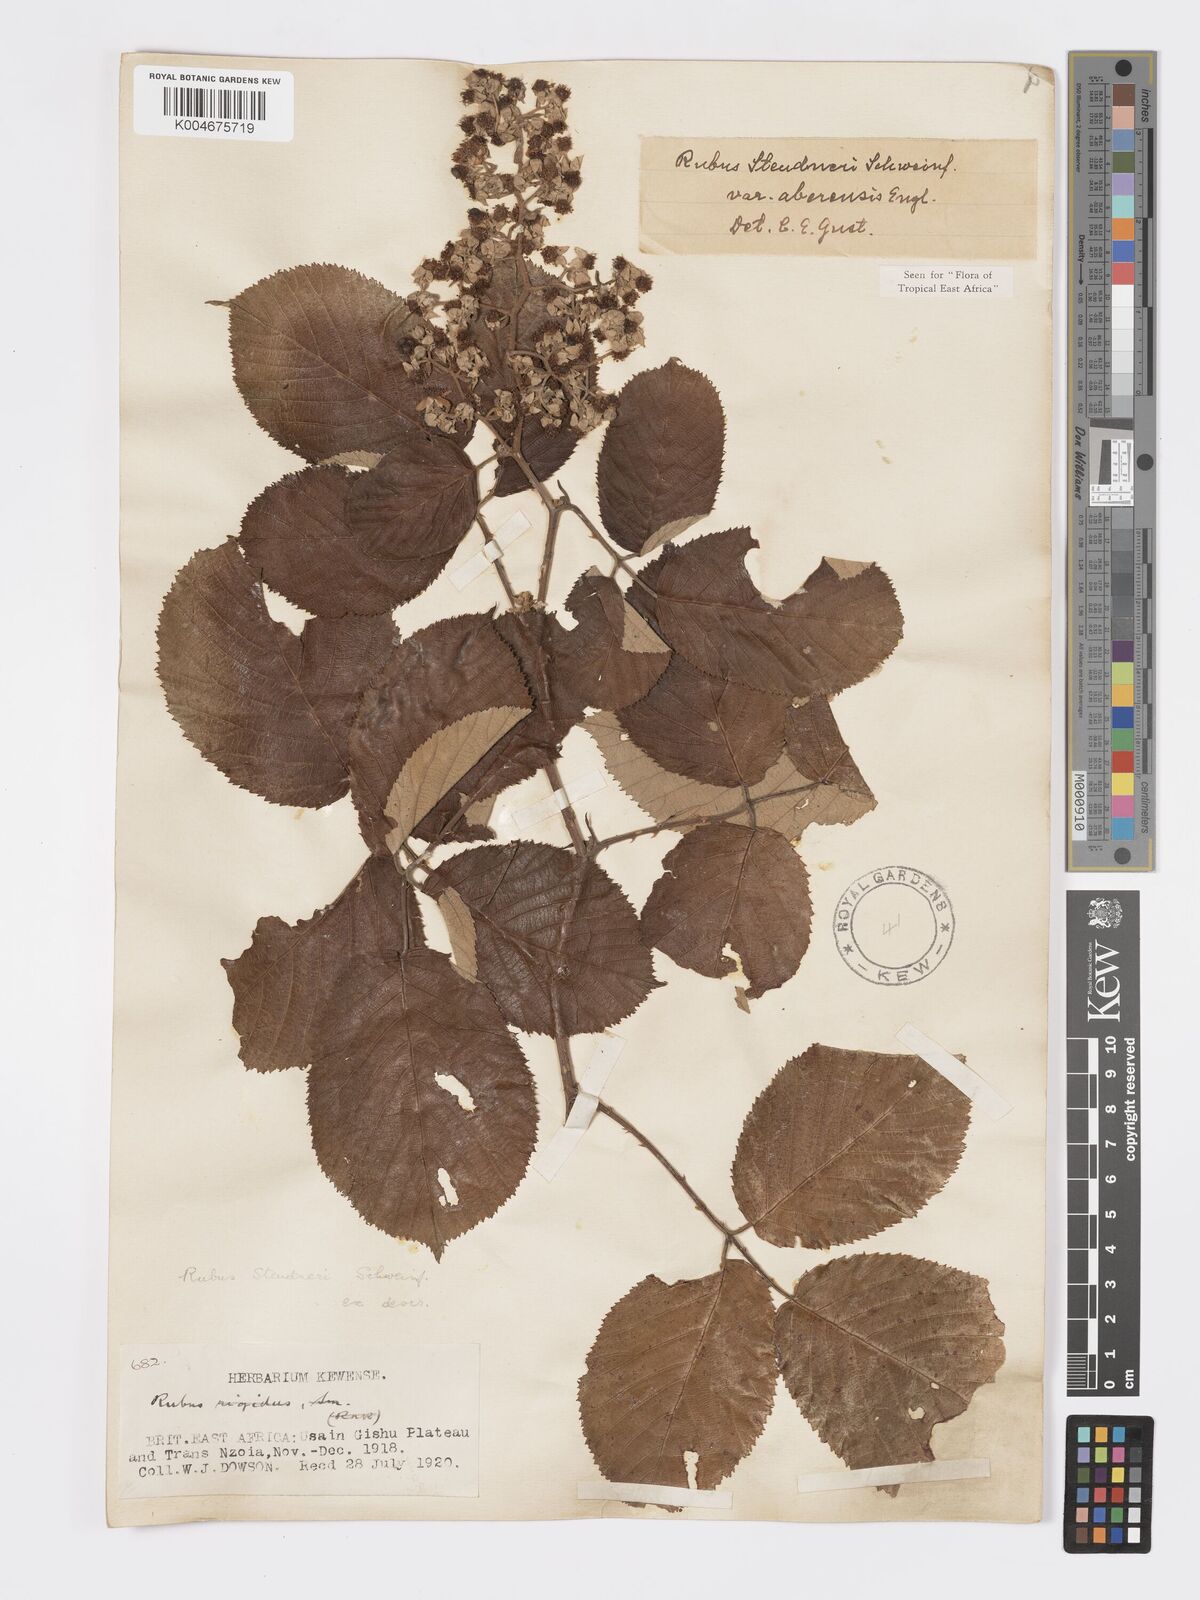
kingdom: Plantae
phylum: Tracheophyta
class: Magnoliopsida
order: Rosales
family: Rosaceae
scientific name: Rosaceae
